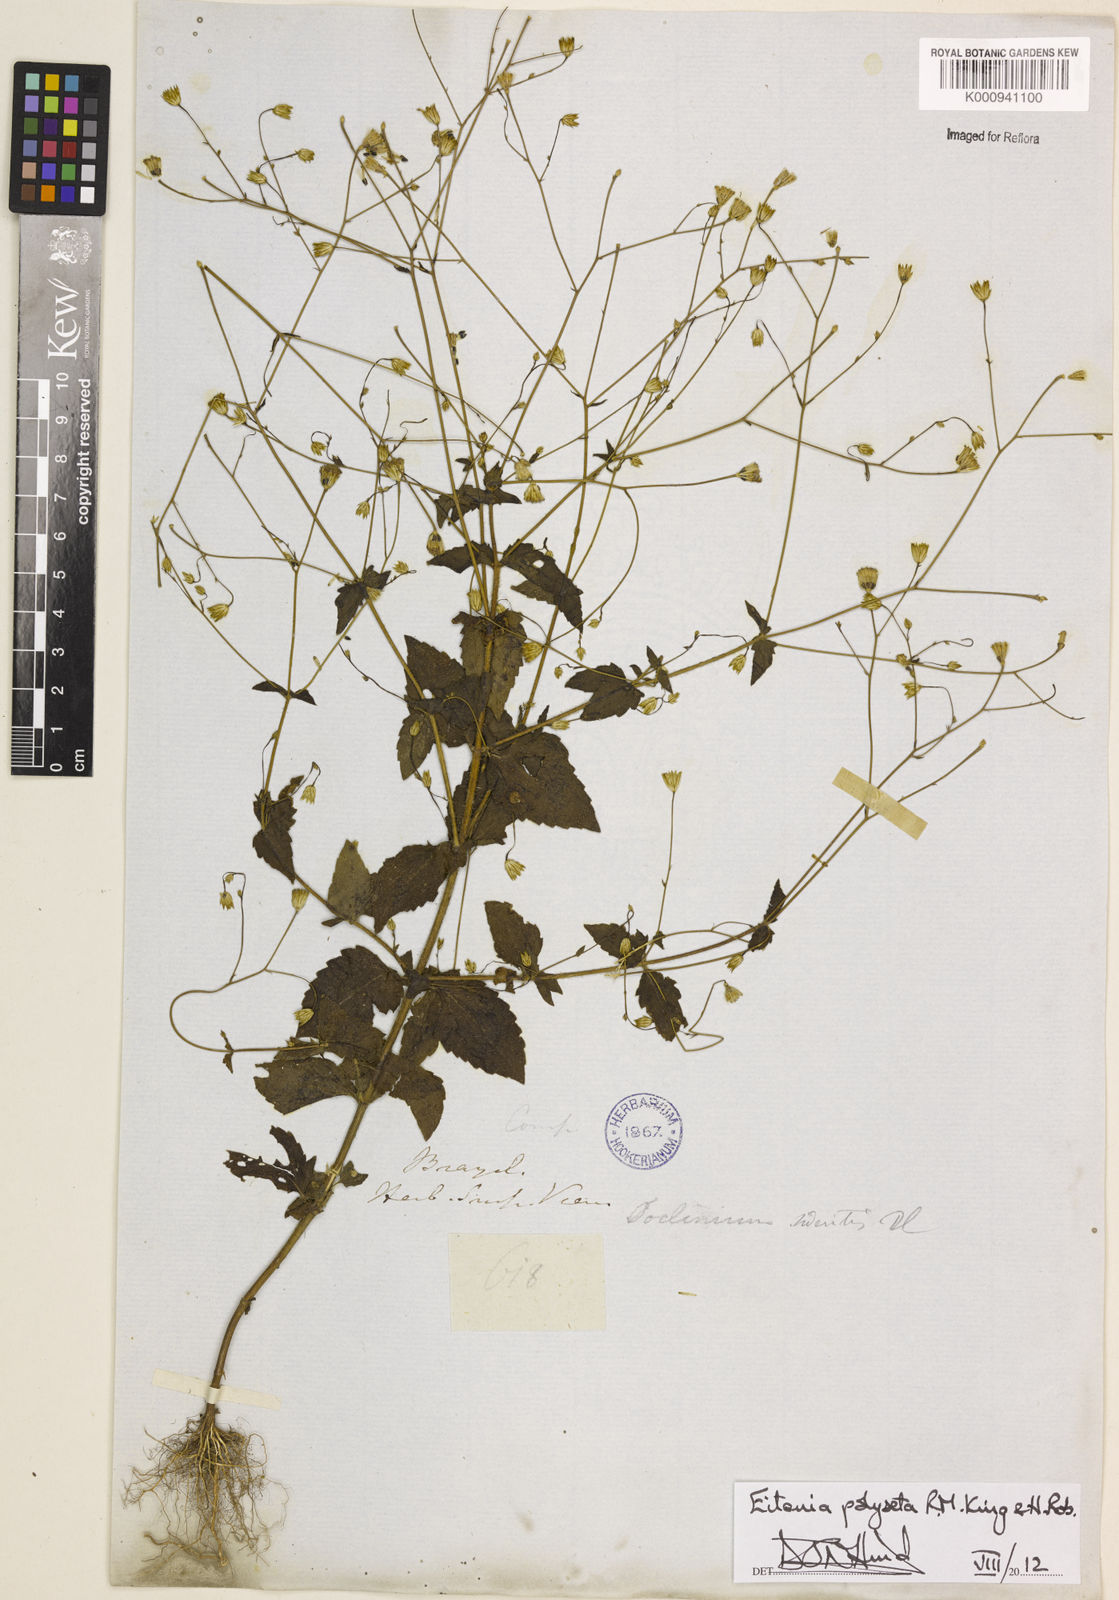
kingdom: Plantae
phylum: Tracheophyta
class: Magnoliopsida
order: Asterales
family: Asteraceae
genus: Eitenia
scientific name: Eitenia polyseta
